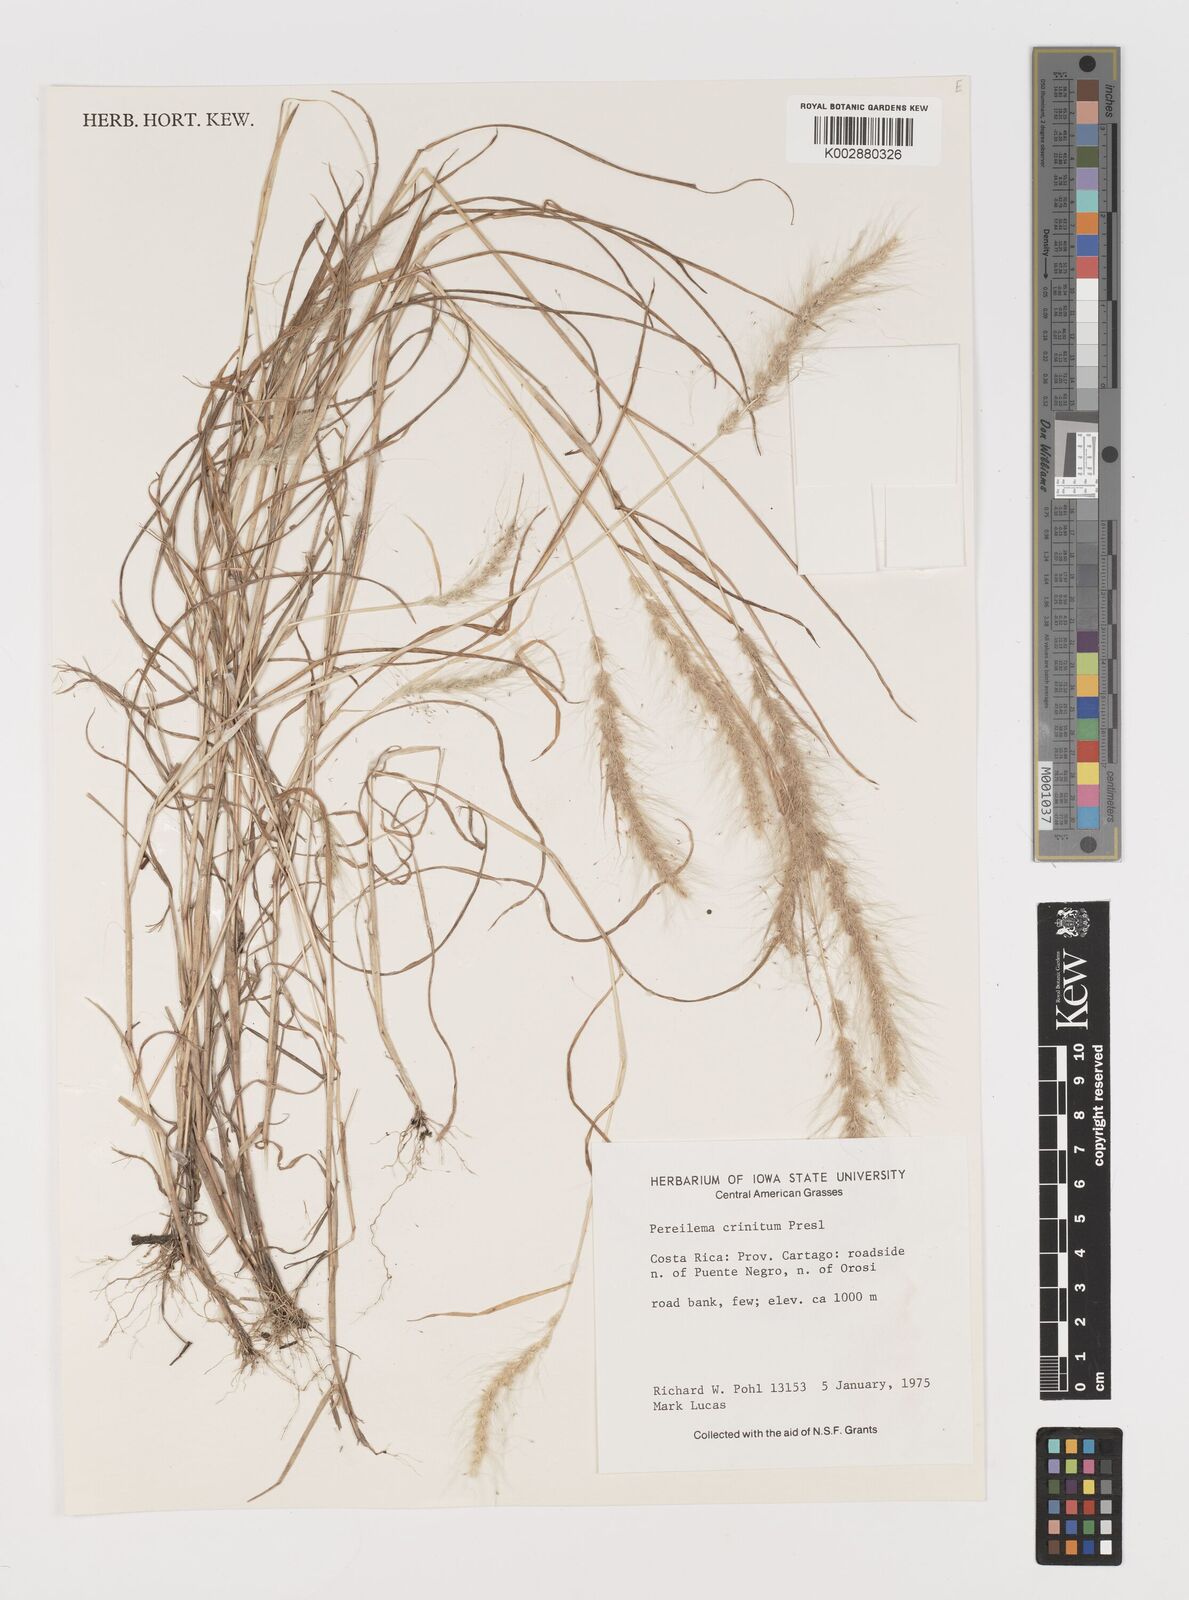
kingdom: Plantae
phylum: Tracheophyta
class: Liliopsida
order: Poales
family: Poaceae
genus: Muhlenbergia
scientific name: Muhlenbergia pereilema
